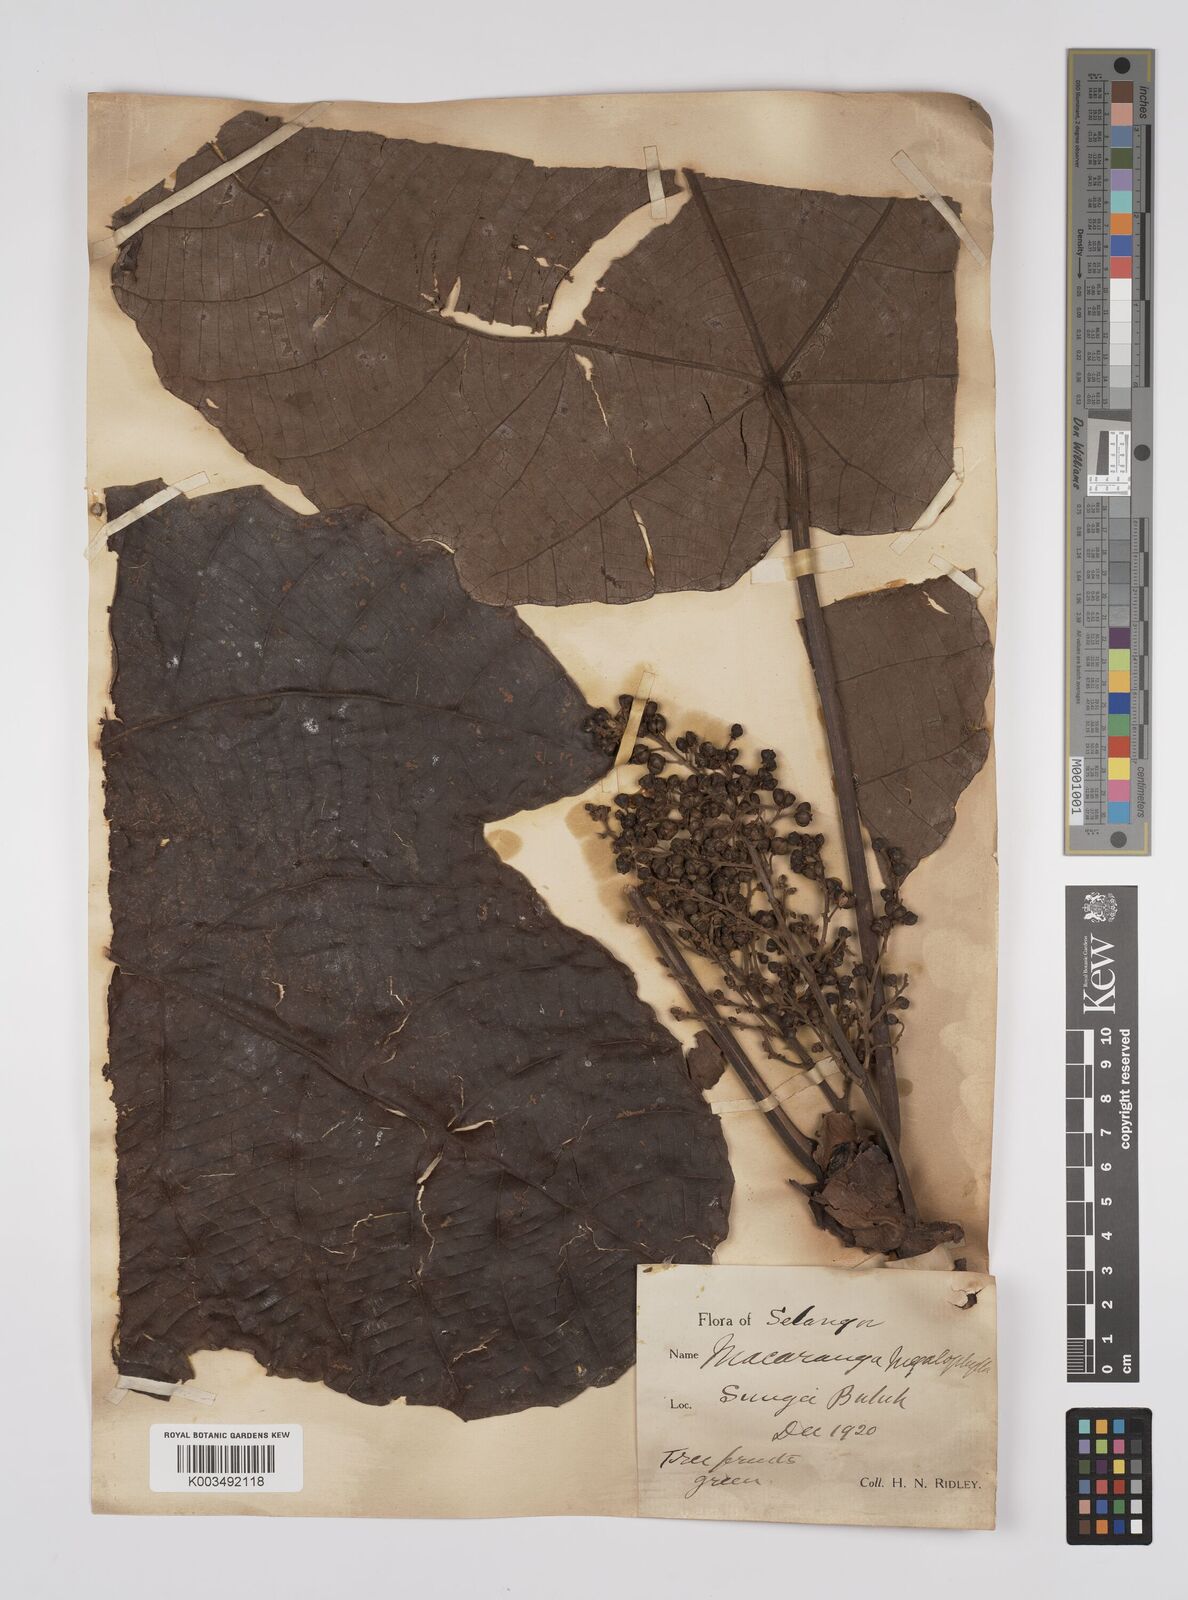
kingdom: Plantae
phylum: Tracheophyta
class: Magnoliopsida
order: Malpighiales
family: Euphorbiaceae
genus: Macaranga
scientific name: Macaranga gigantea
